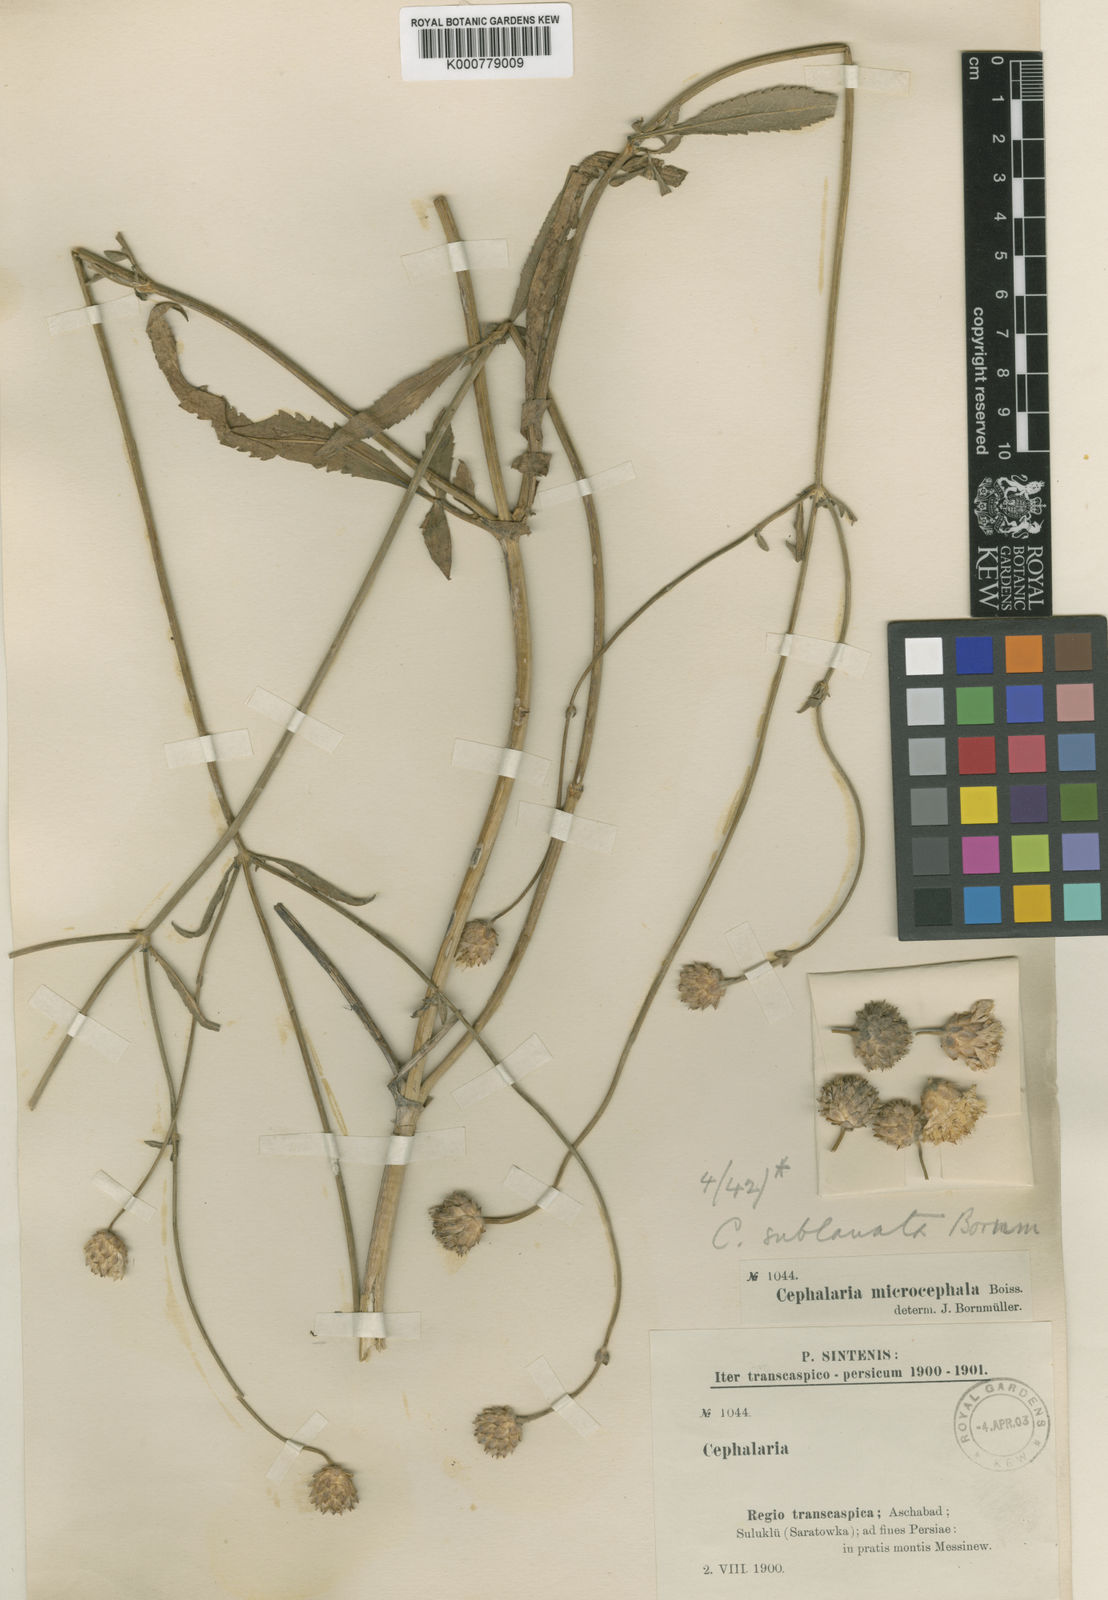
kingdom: Plantae
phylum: Tracheophyta
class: Magnoliopsida
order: Dipsacales
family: Caprifoliaceae
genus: Cephalaria
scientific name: Cephalaria
